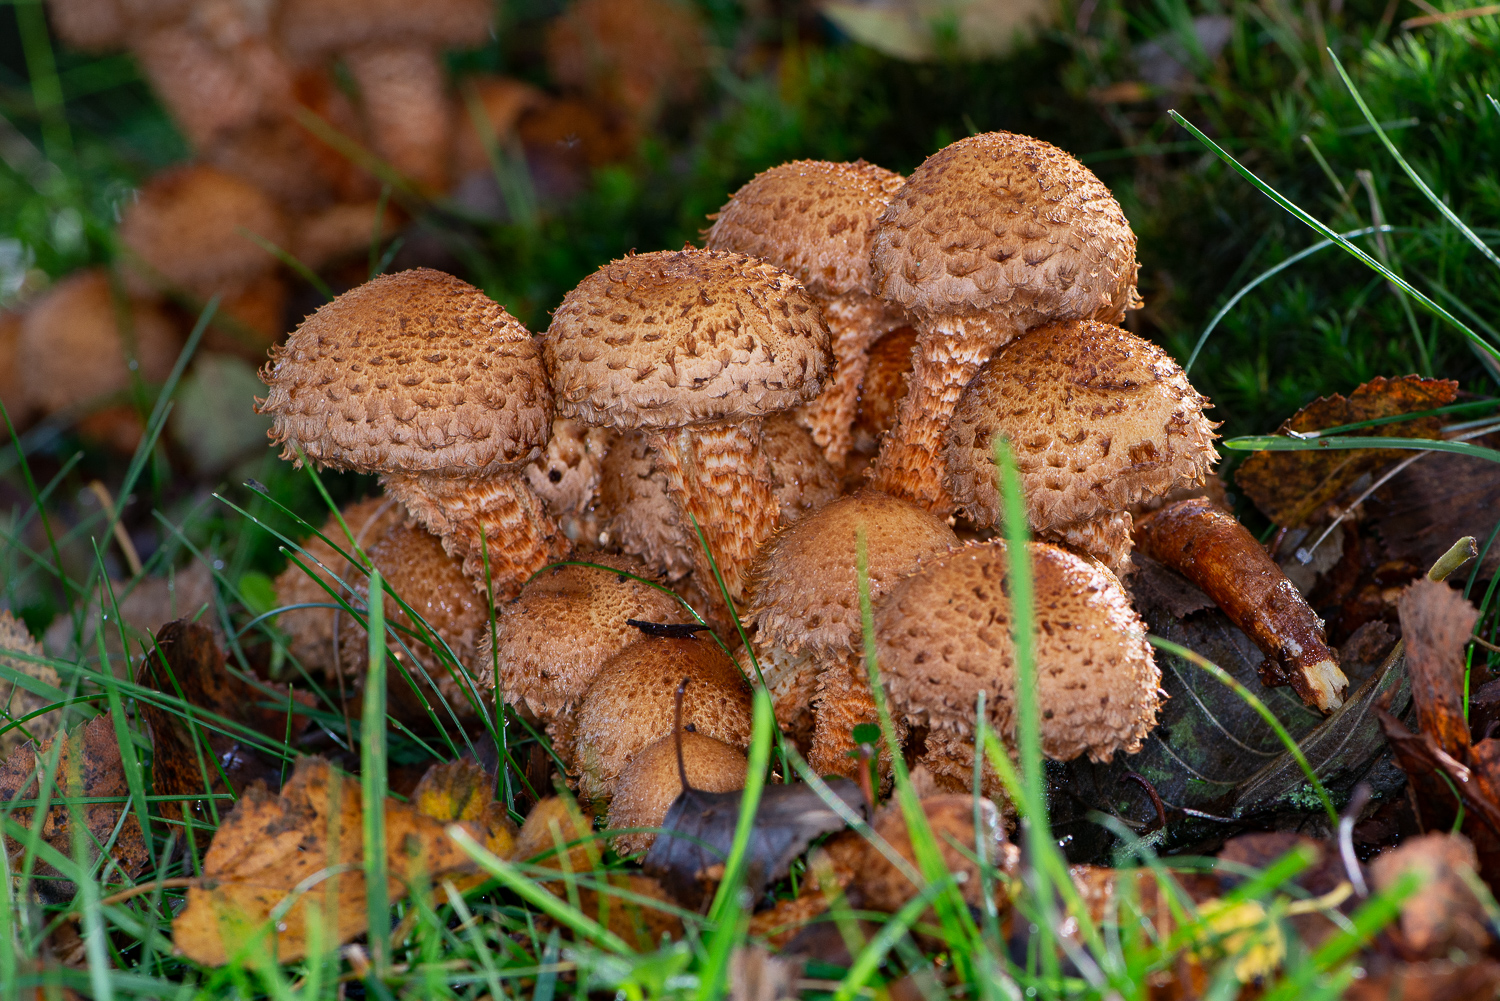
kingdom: Fungi
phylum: Basidiomycota
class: Agaricomycetes
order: Agaricales
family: Strophariaceae
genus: Pholiota
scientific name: Pholiota squarrosa
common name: krumskællet skælhat
